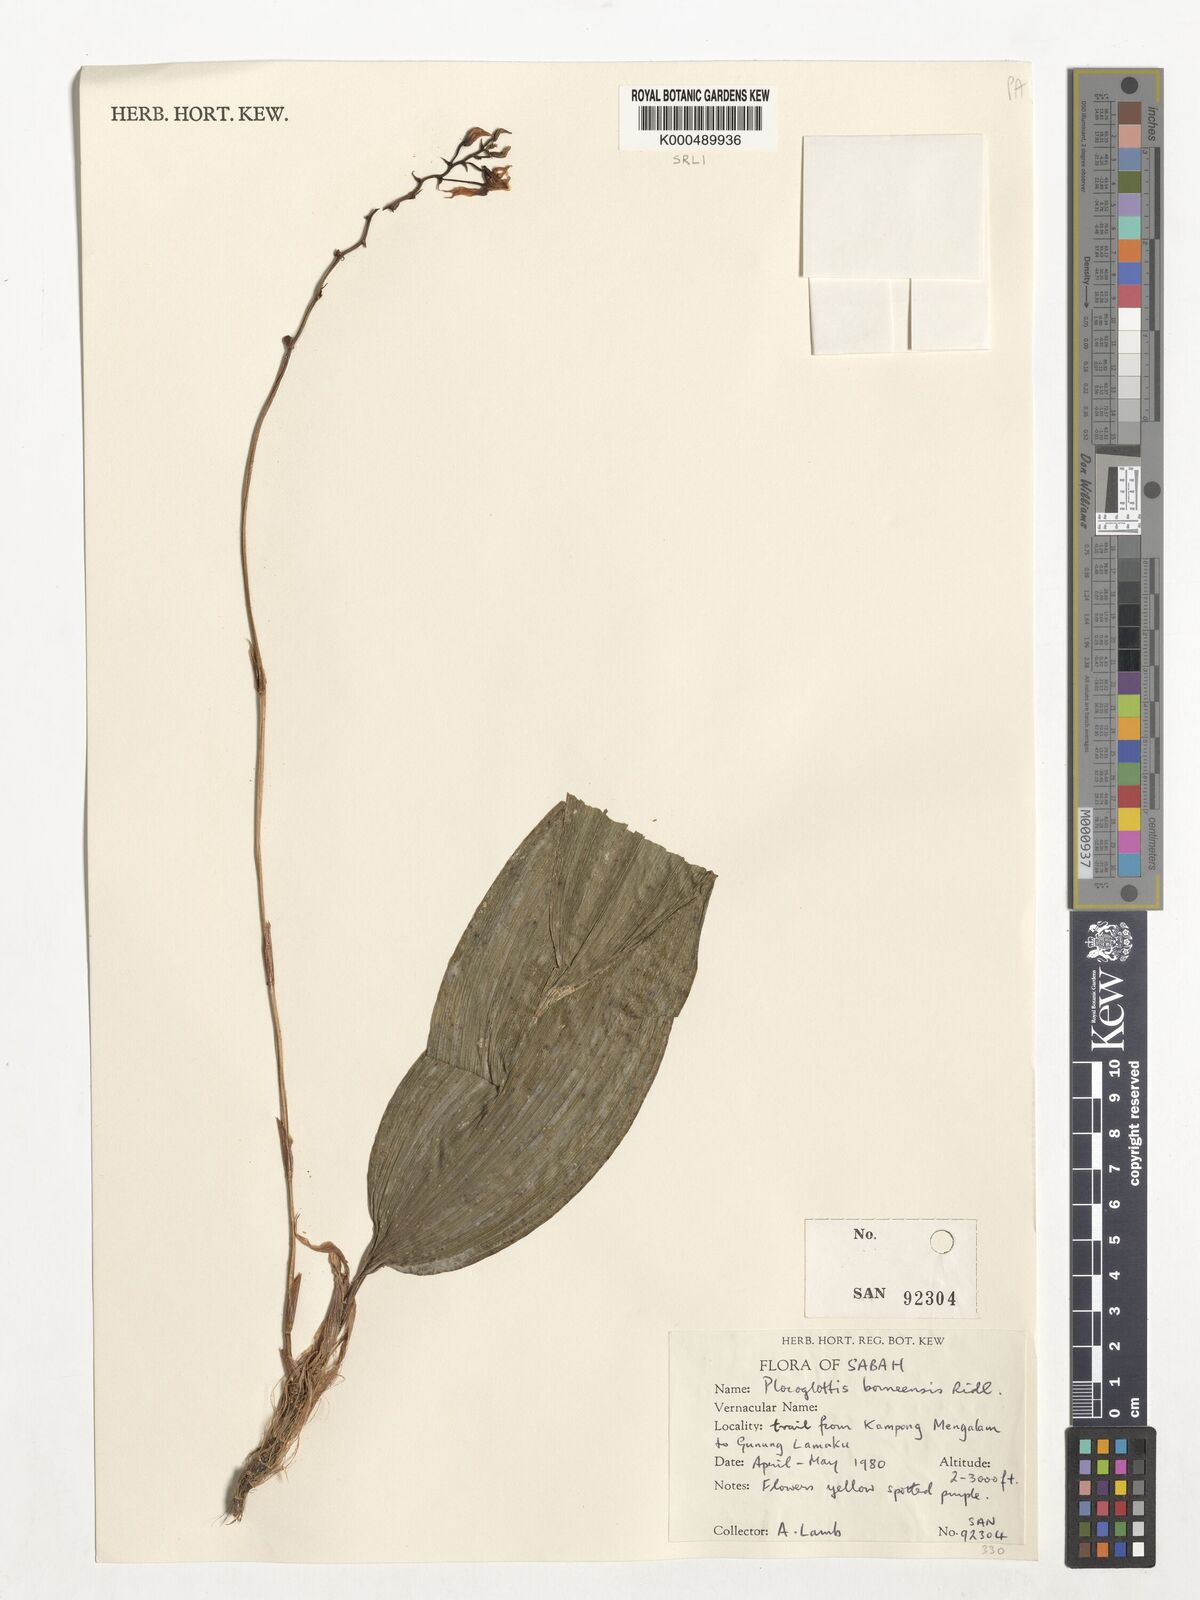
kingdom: Plantae
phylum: Tracheophyta
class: Liliopsida
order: Asparagales
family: Orchidaceae
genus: Plocoglottis
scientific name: Plocoglottis borneensis
